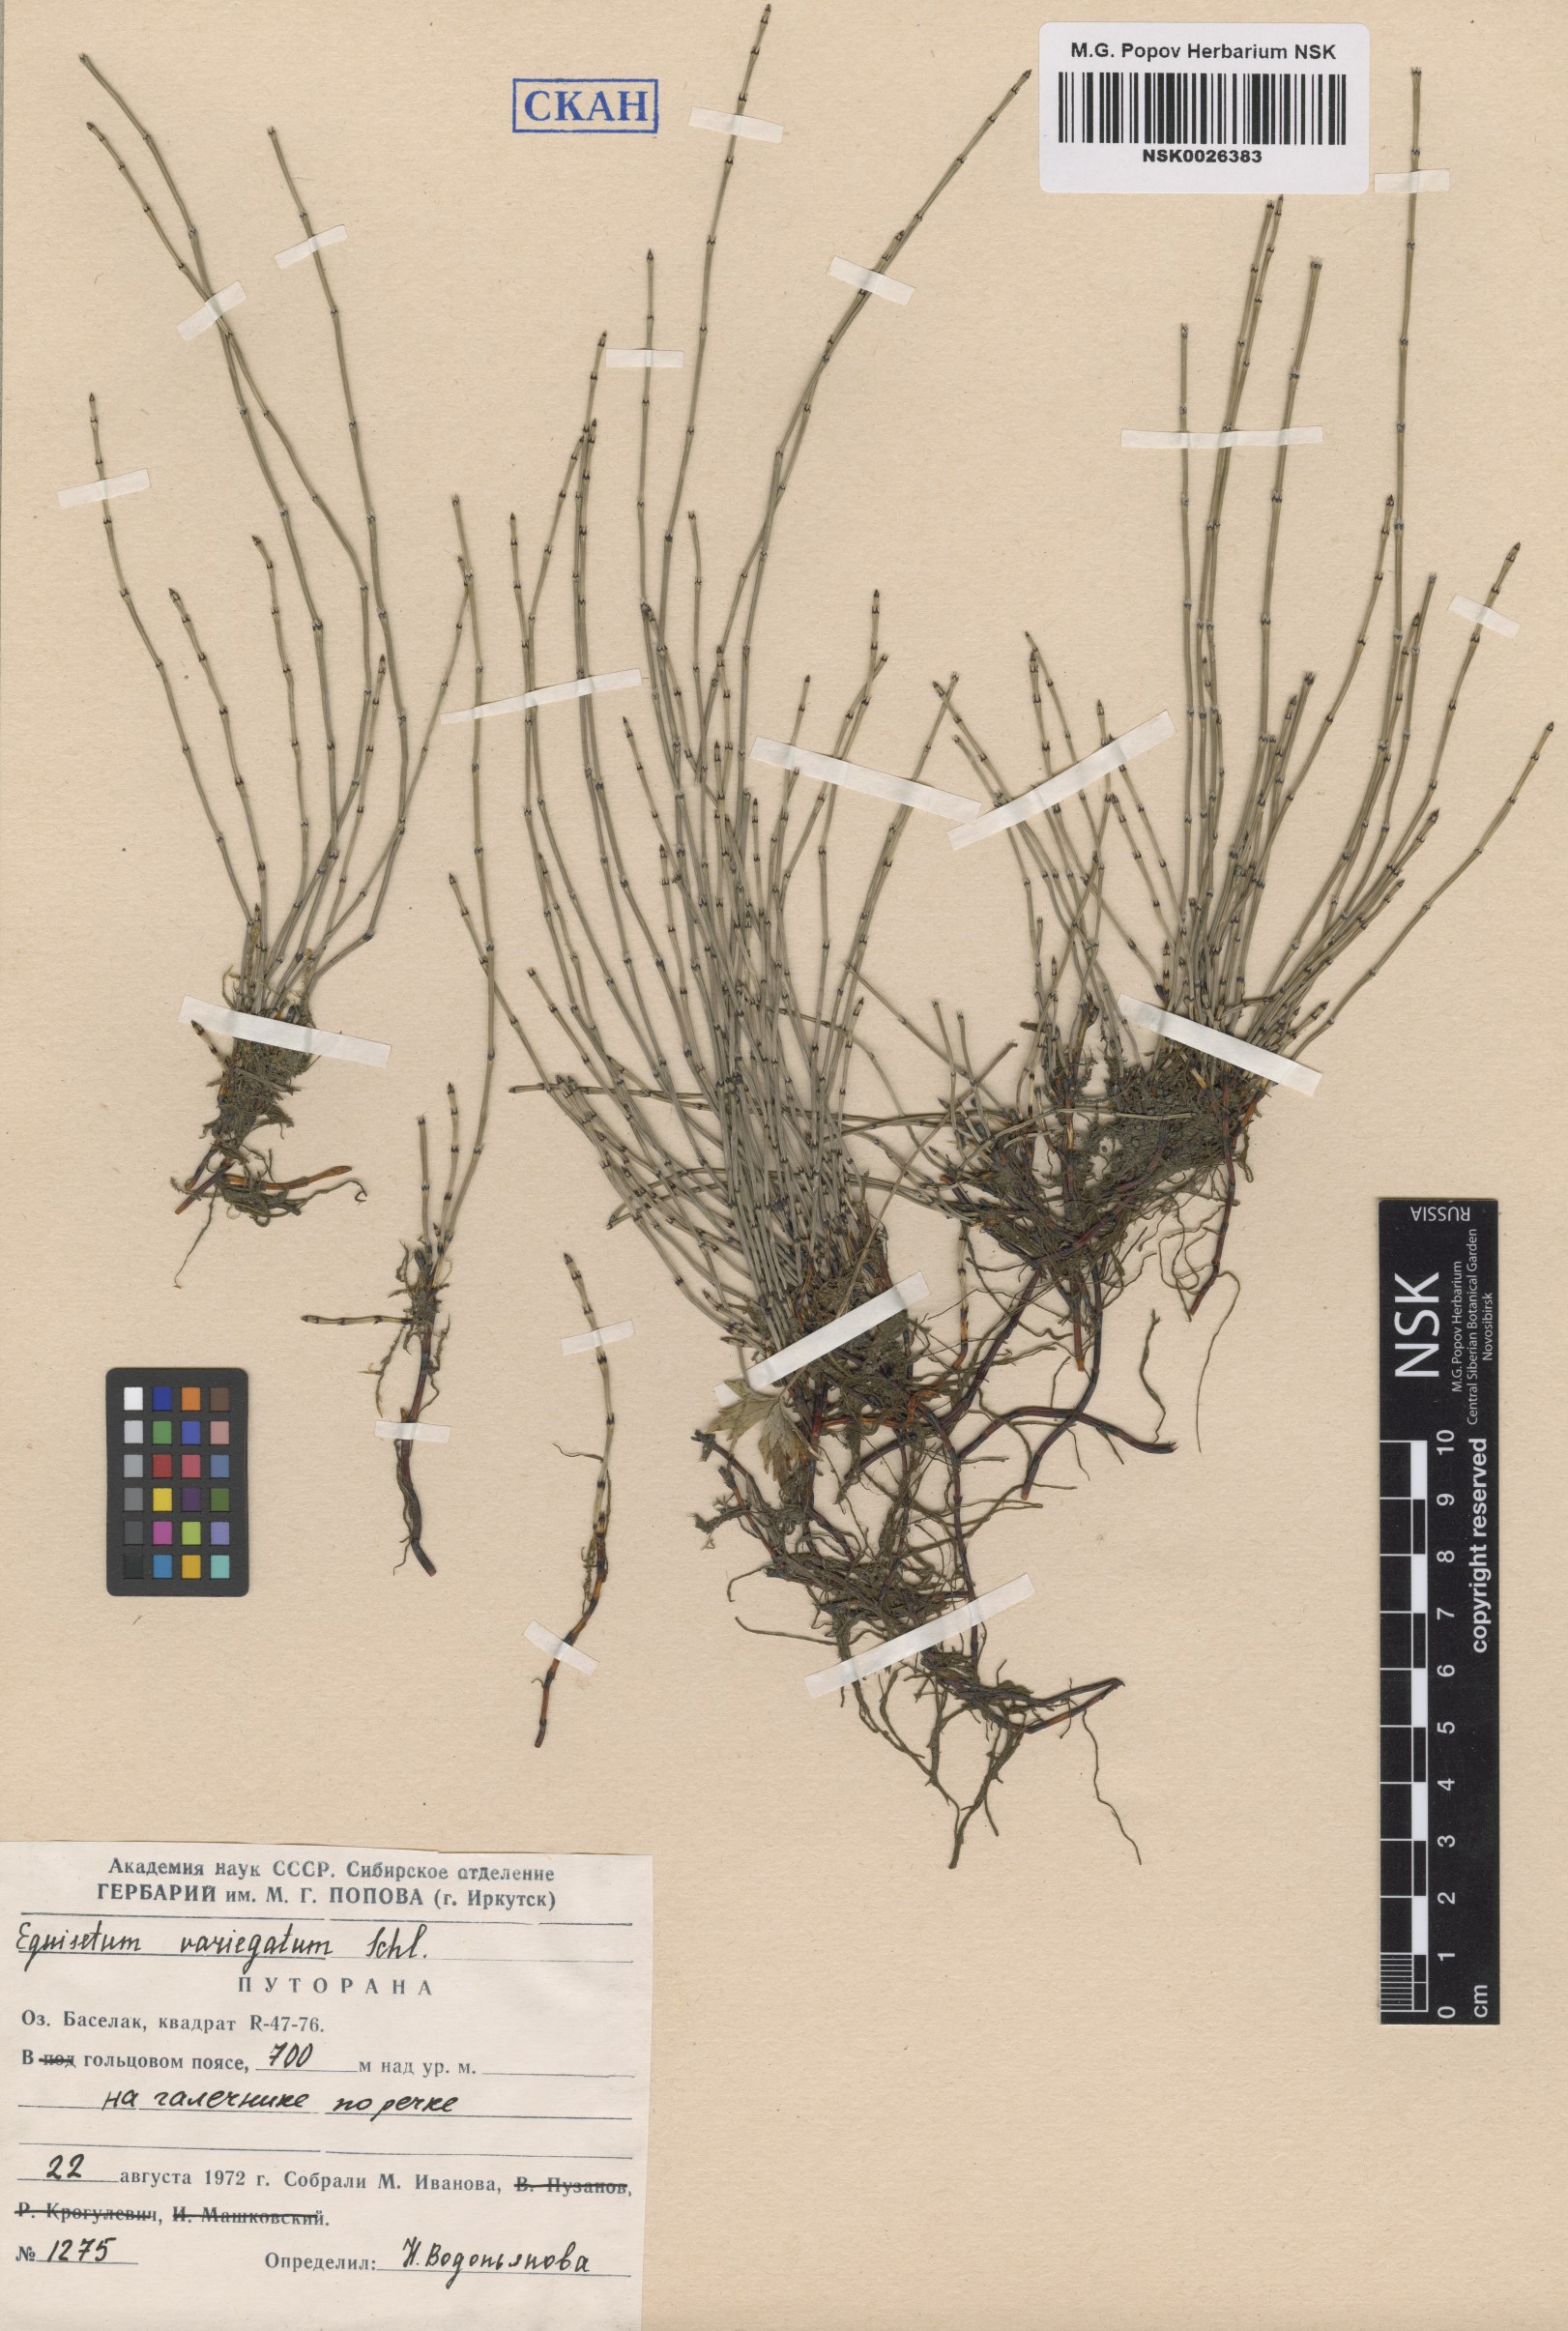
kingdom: Plantae
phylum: Tracheophyta
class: Polypodiopsida
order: Equisetales
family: Equisetaceae
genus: Equisetum
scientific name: Equisetum variegatum
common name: Variegated horsetail
